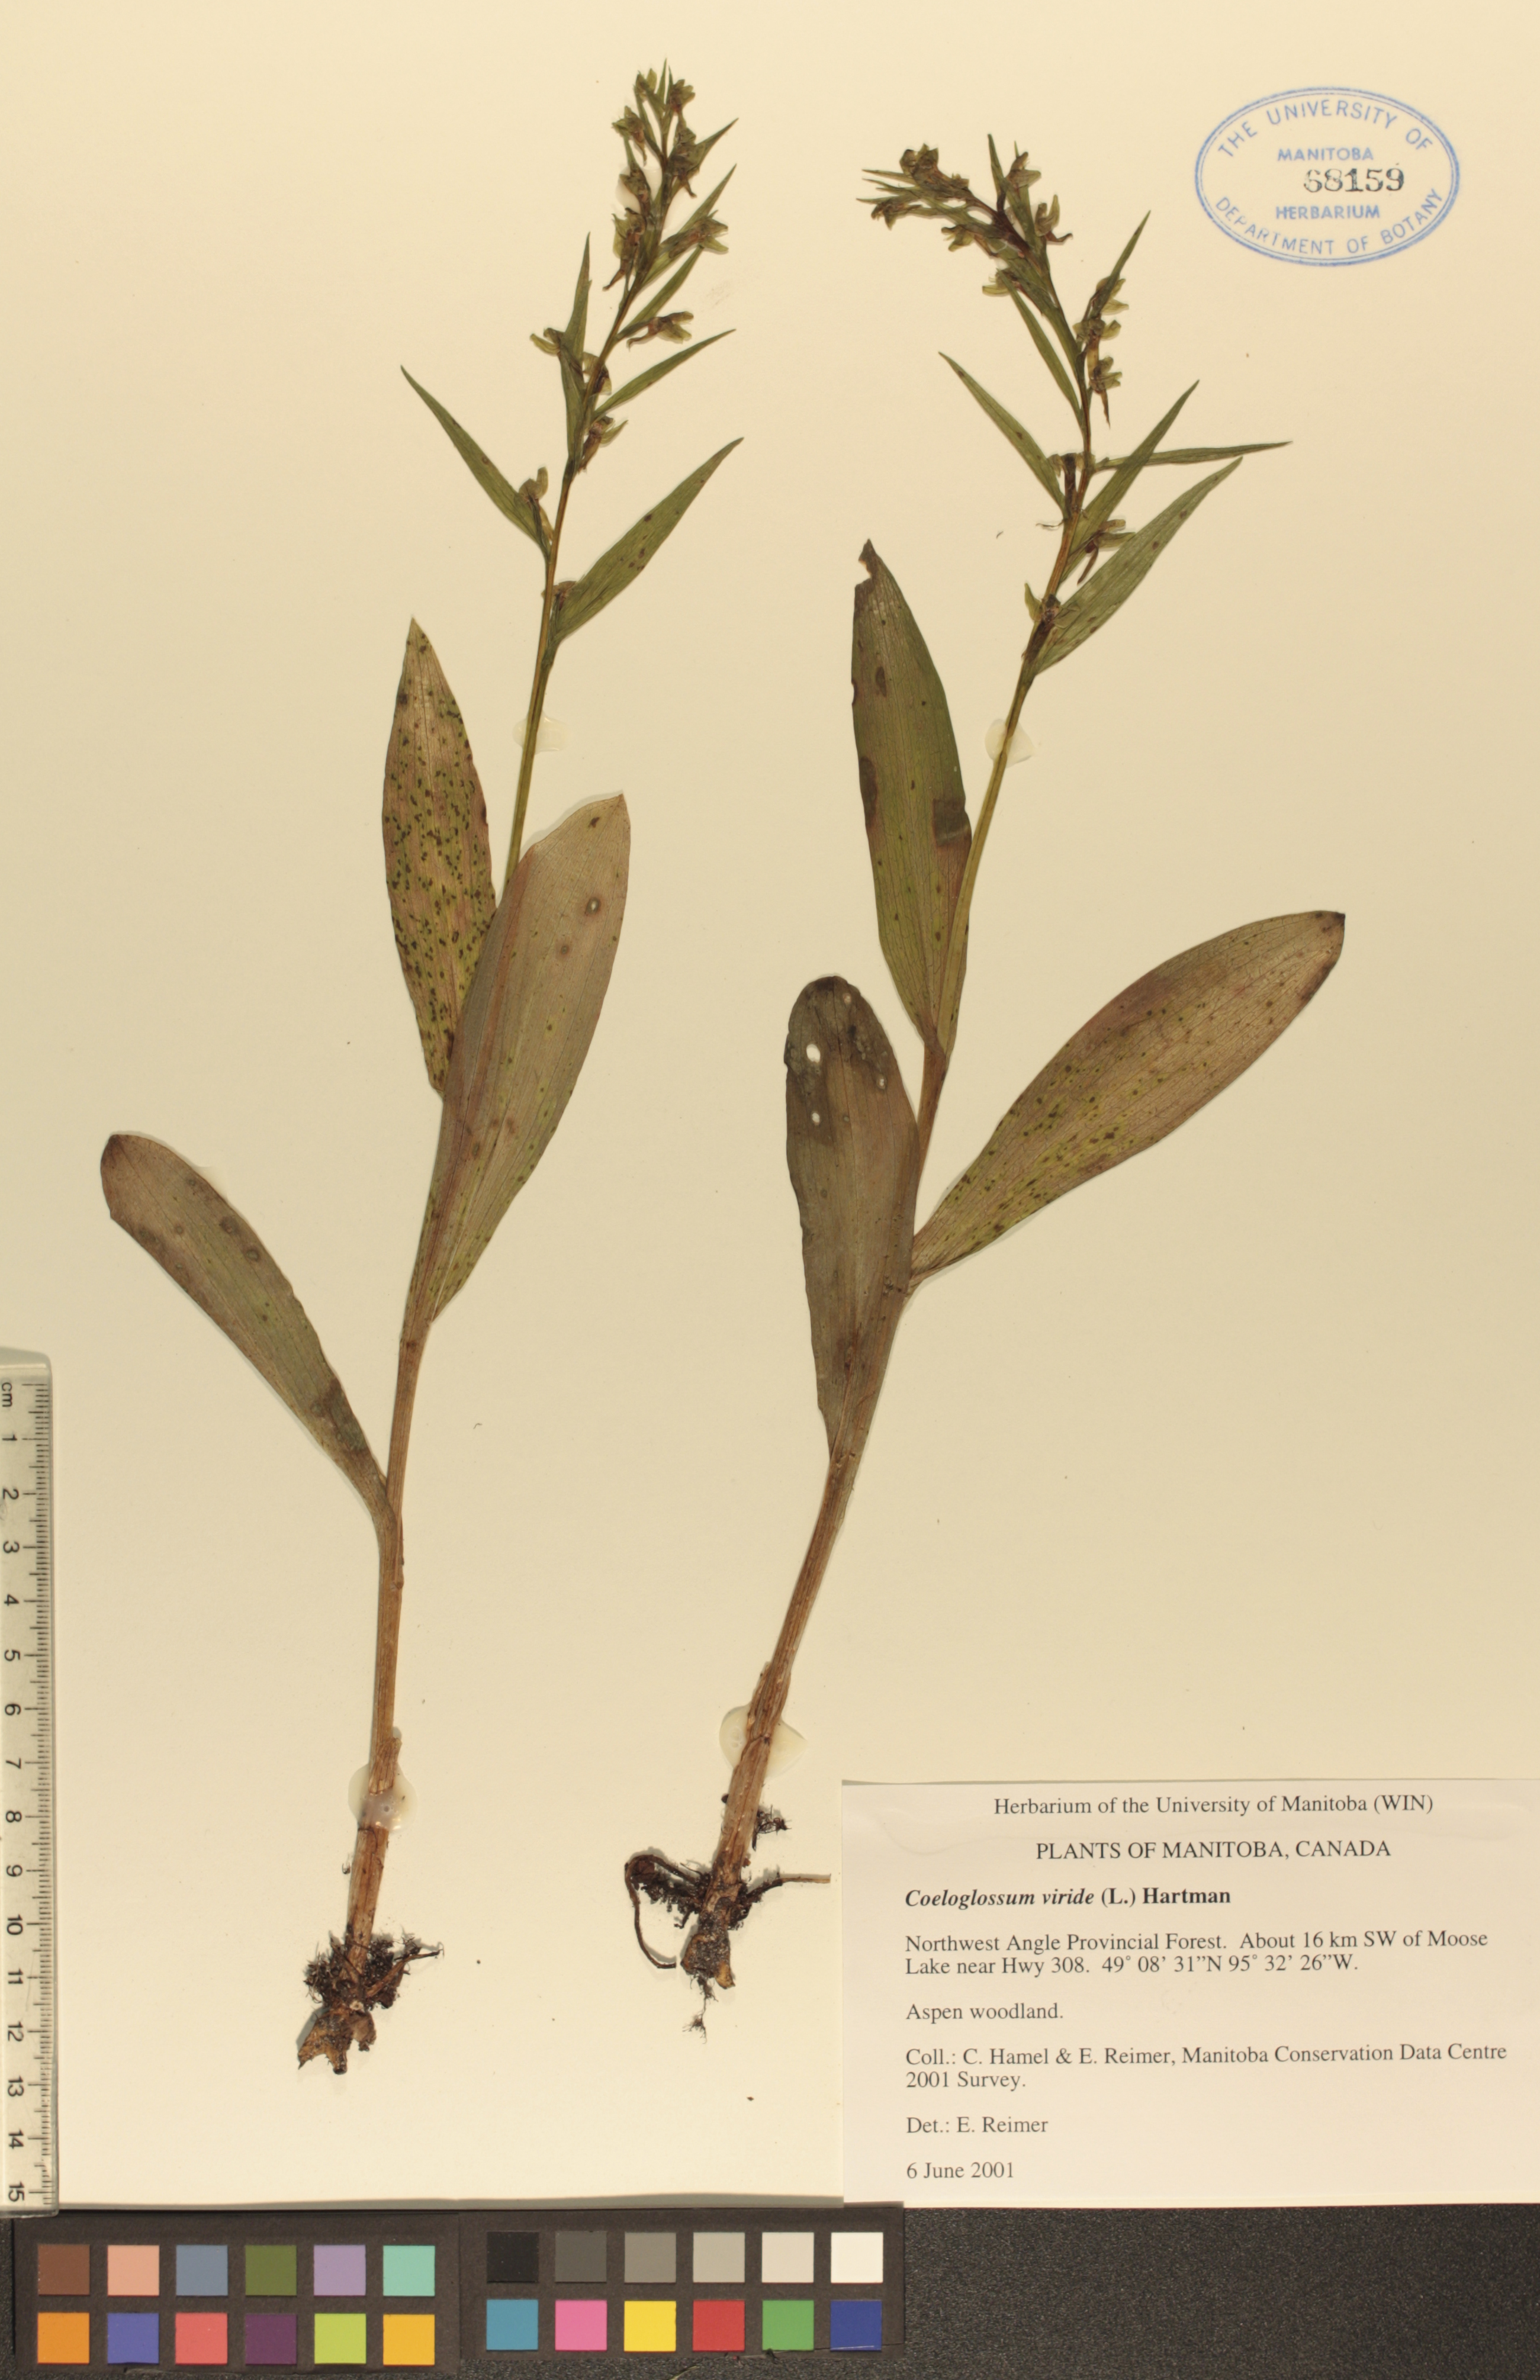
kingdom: Plantae
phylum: Tracheophyta
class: Liliopsida
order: Asparagales
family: Orchidaceae
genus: Dactylorhiza
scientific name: Dactylorhiza viridis
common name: Longbract frog orchid
